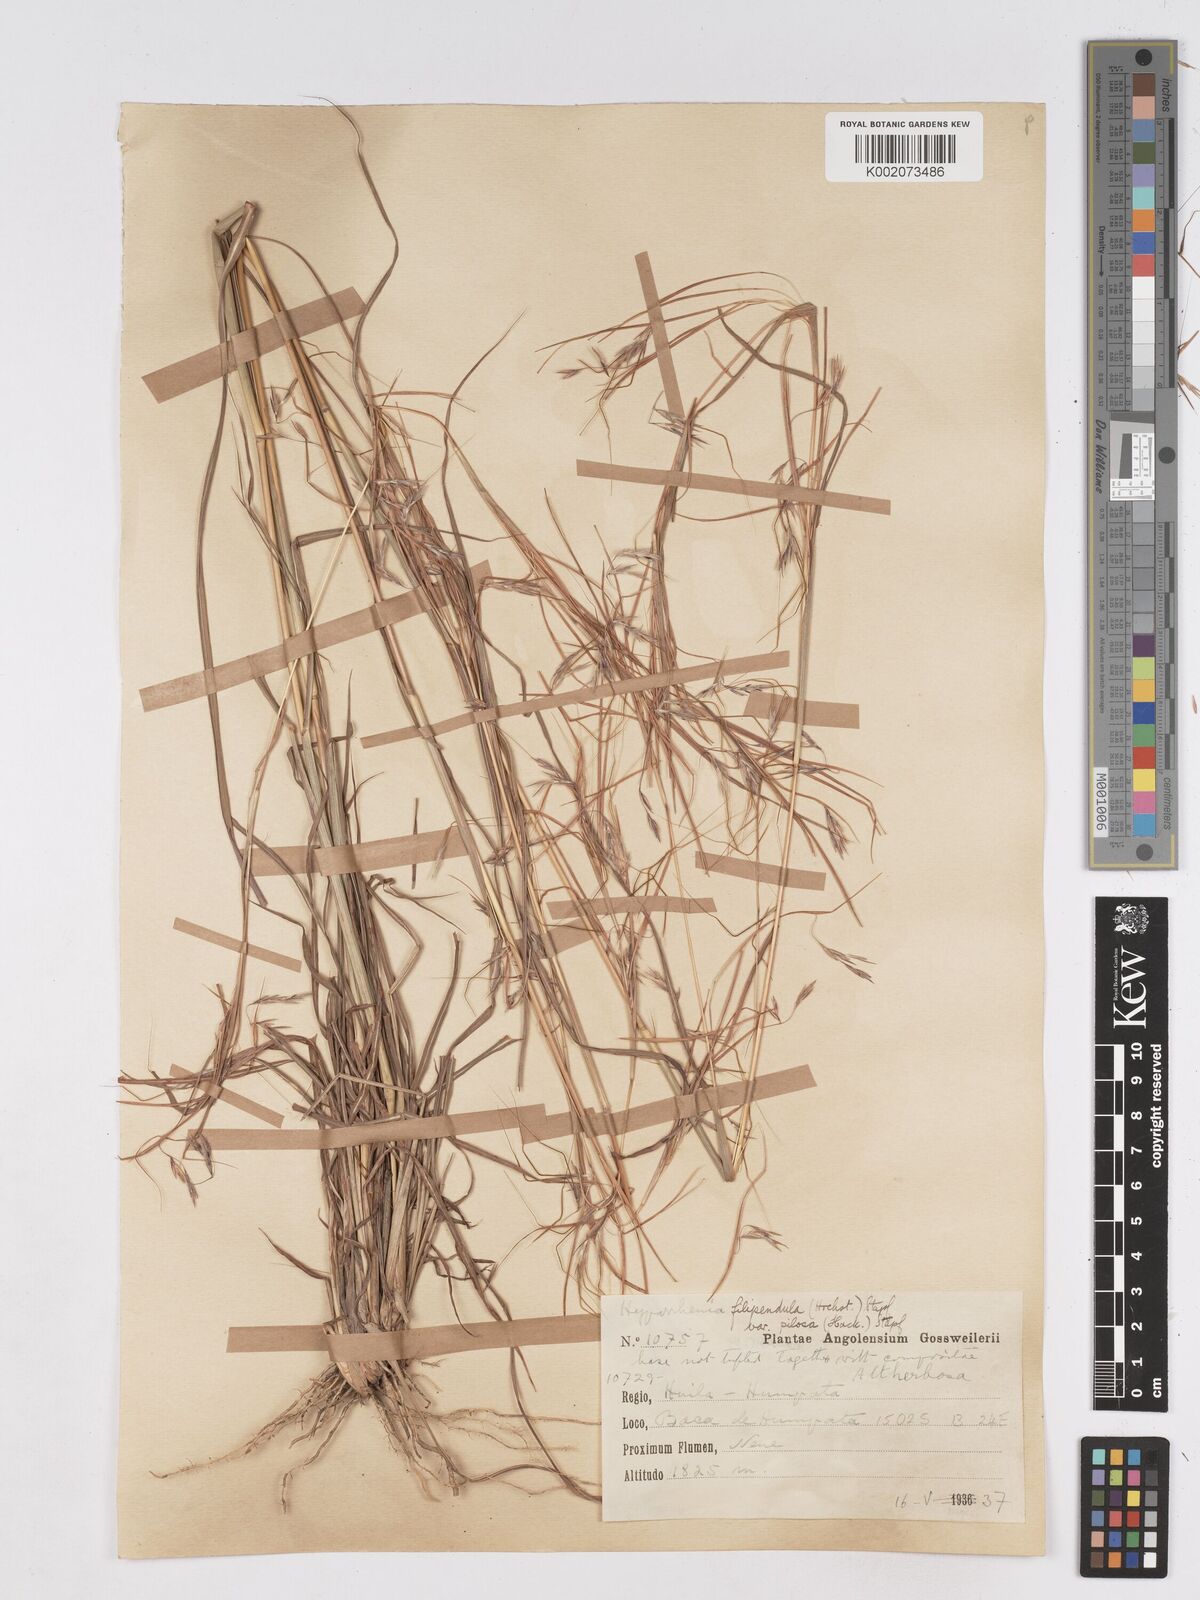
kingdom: Plantae
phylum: Tracheophyta
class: Liliopsida
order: Poales
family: Poaceae
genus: Hyparrhenia
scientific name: Hyparrhenia filipendula
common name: Tambookie grass
